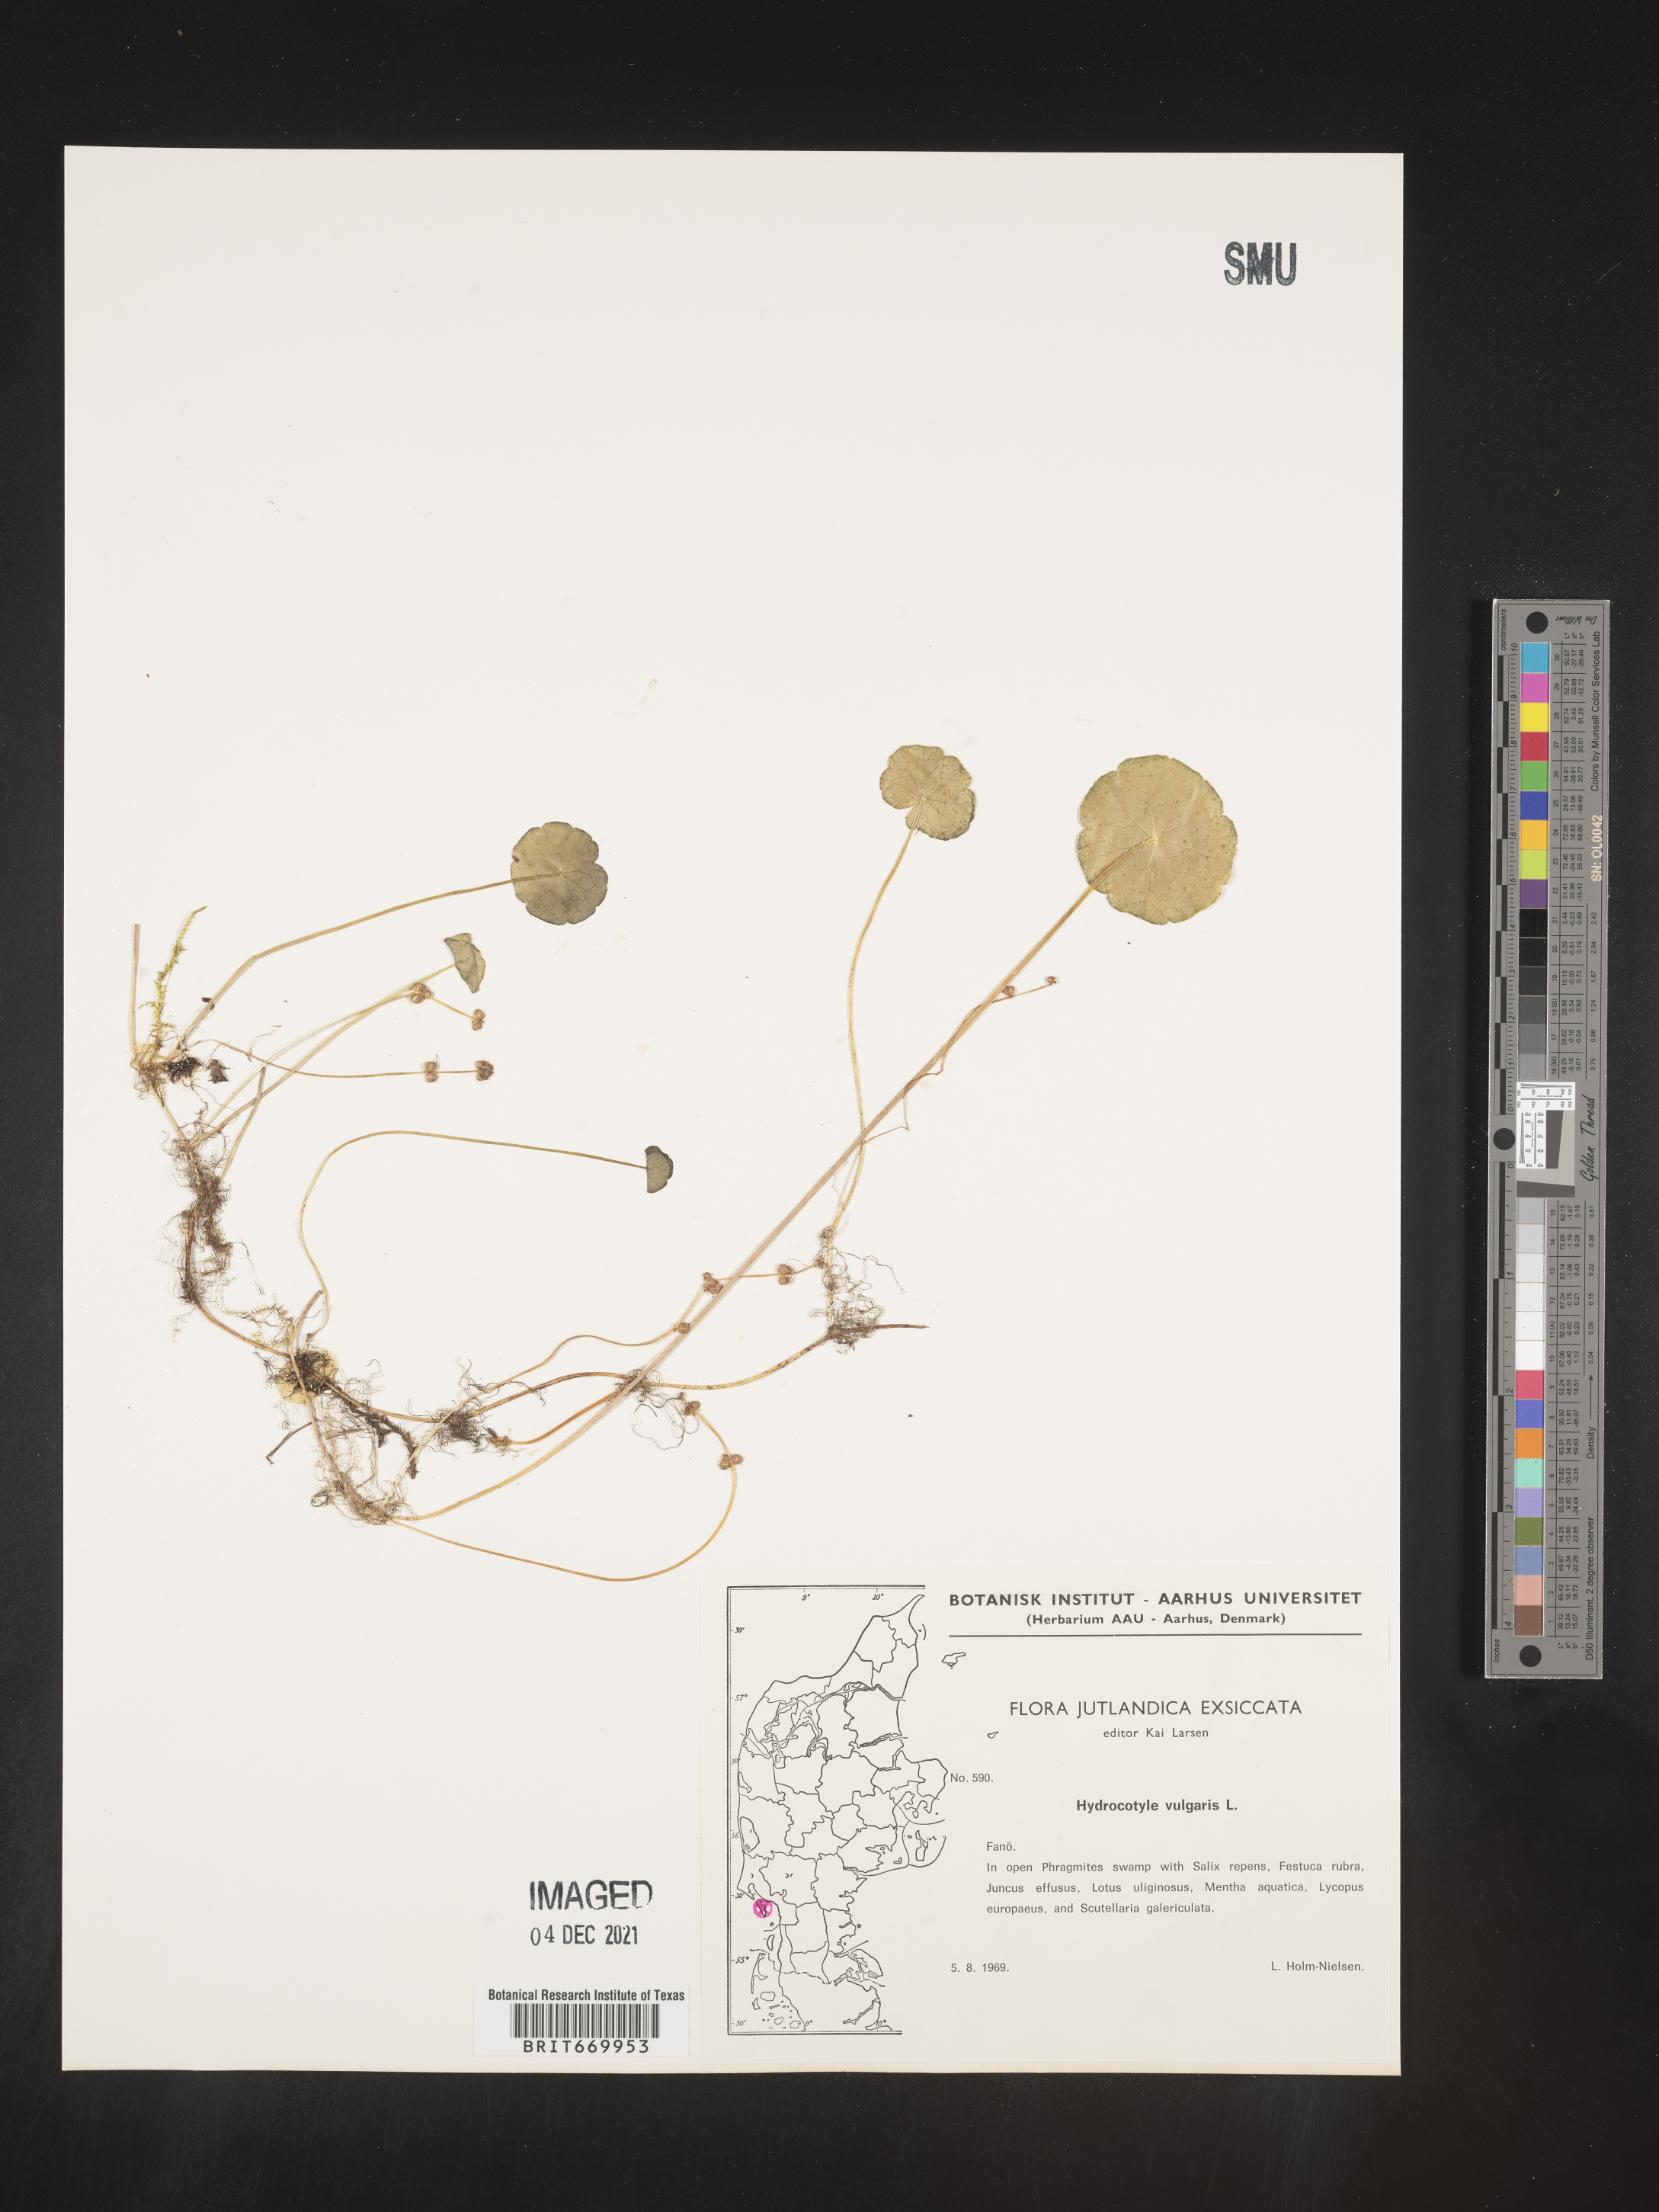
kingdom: Plantae
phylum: Tracheophyta
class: Magnoliopsida
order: Apiales
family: Araliaceae
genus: Hydrocotyle
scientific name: Hydrocotyle
